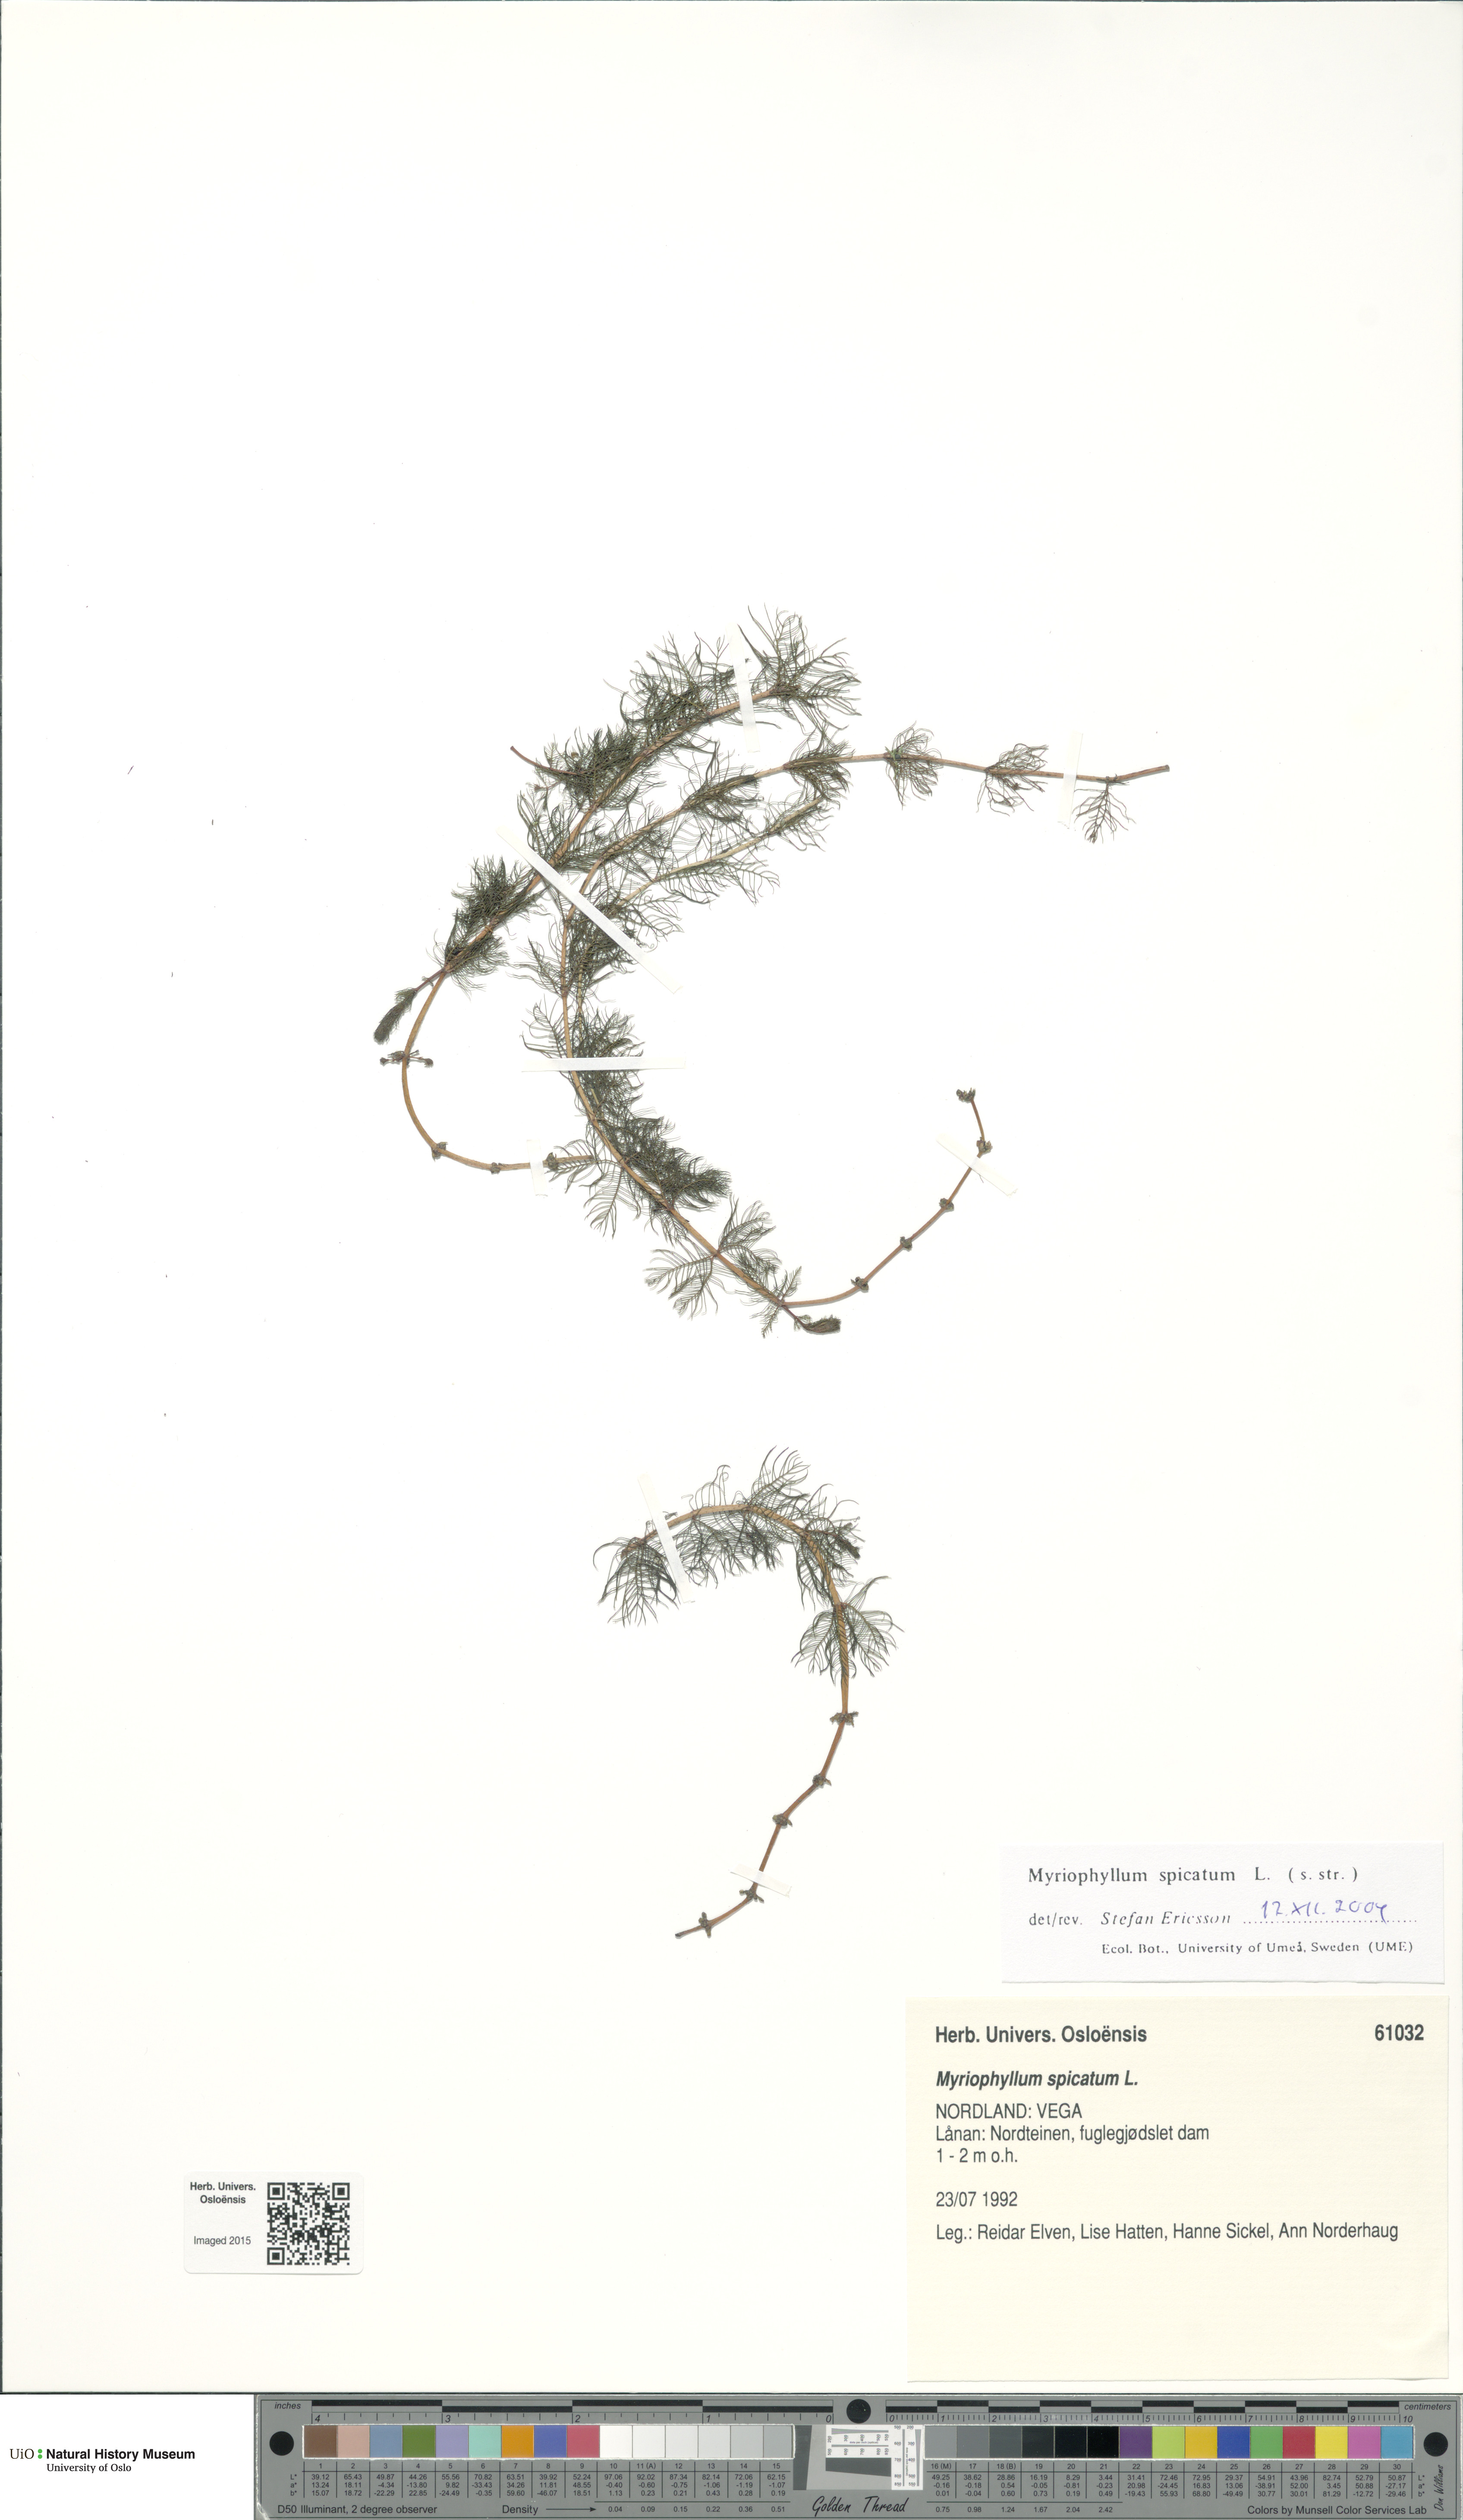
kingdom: Plantae
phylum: Tracheophyta
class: Magnoliopsida
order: Saxifragales
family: Haloragaceae
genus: Myriophyllum
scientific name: Myriophyllum spicatum
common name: Spiked water-milfoil
